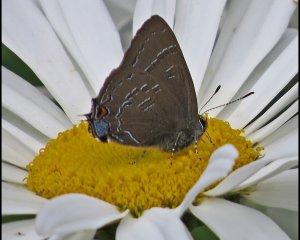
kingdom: Animalia
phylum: Arthropoda
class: Insecta
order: Lepidoptera
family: Lycaenidae
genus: Satyrium
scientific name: Satyrium calanus
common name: Banded Hairstreak
